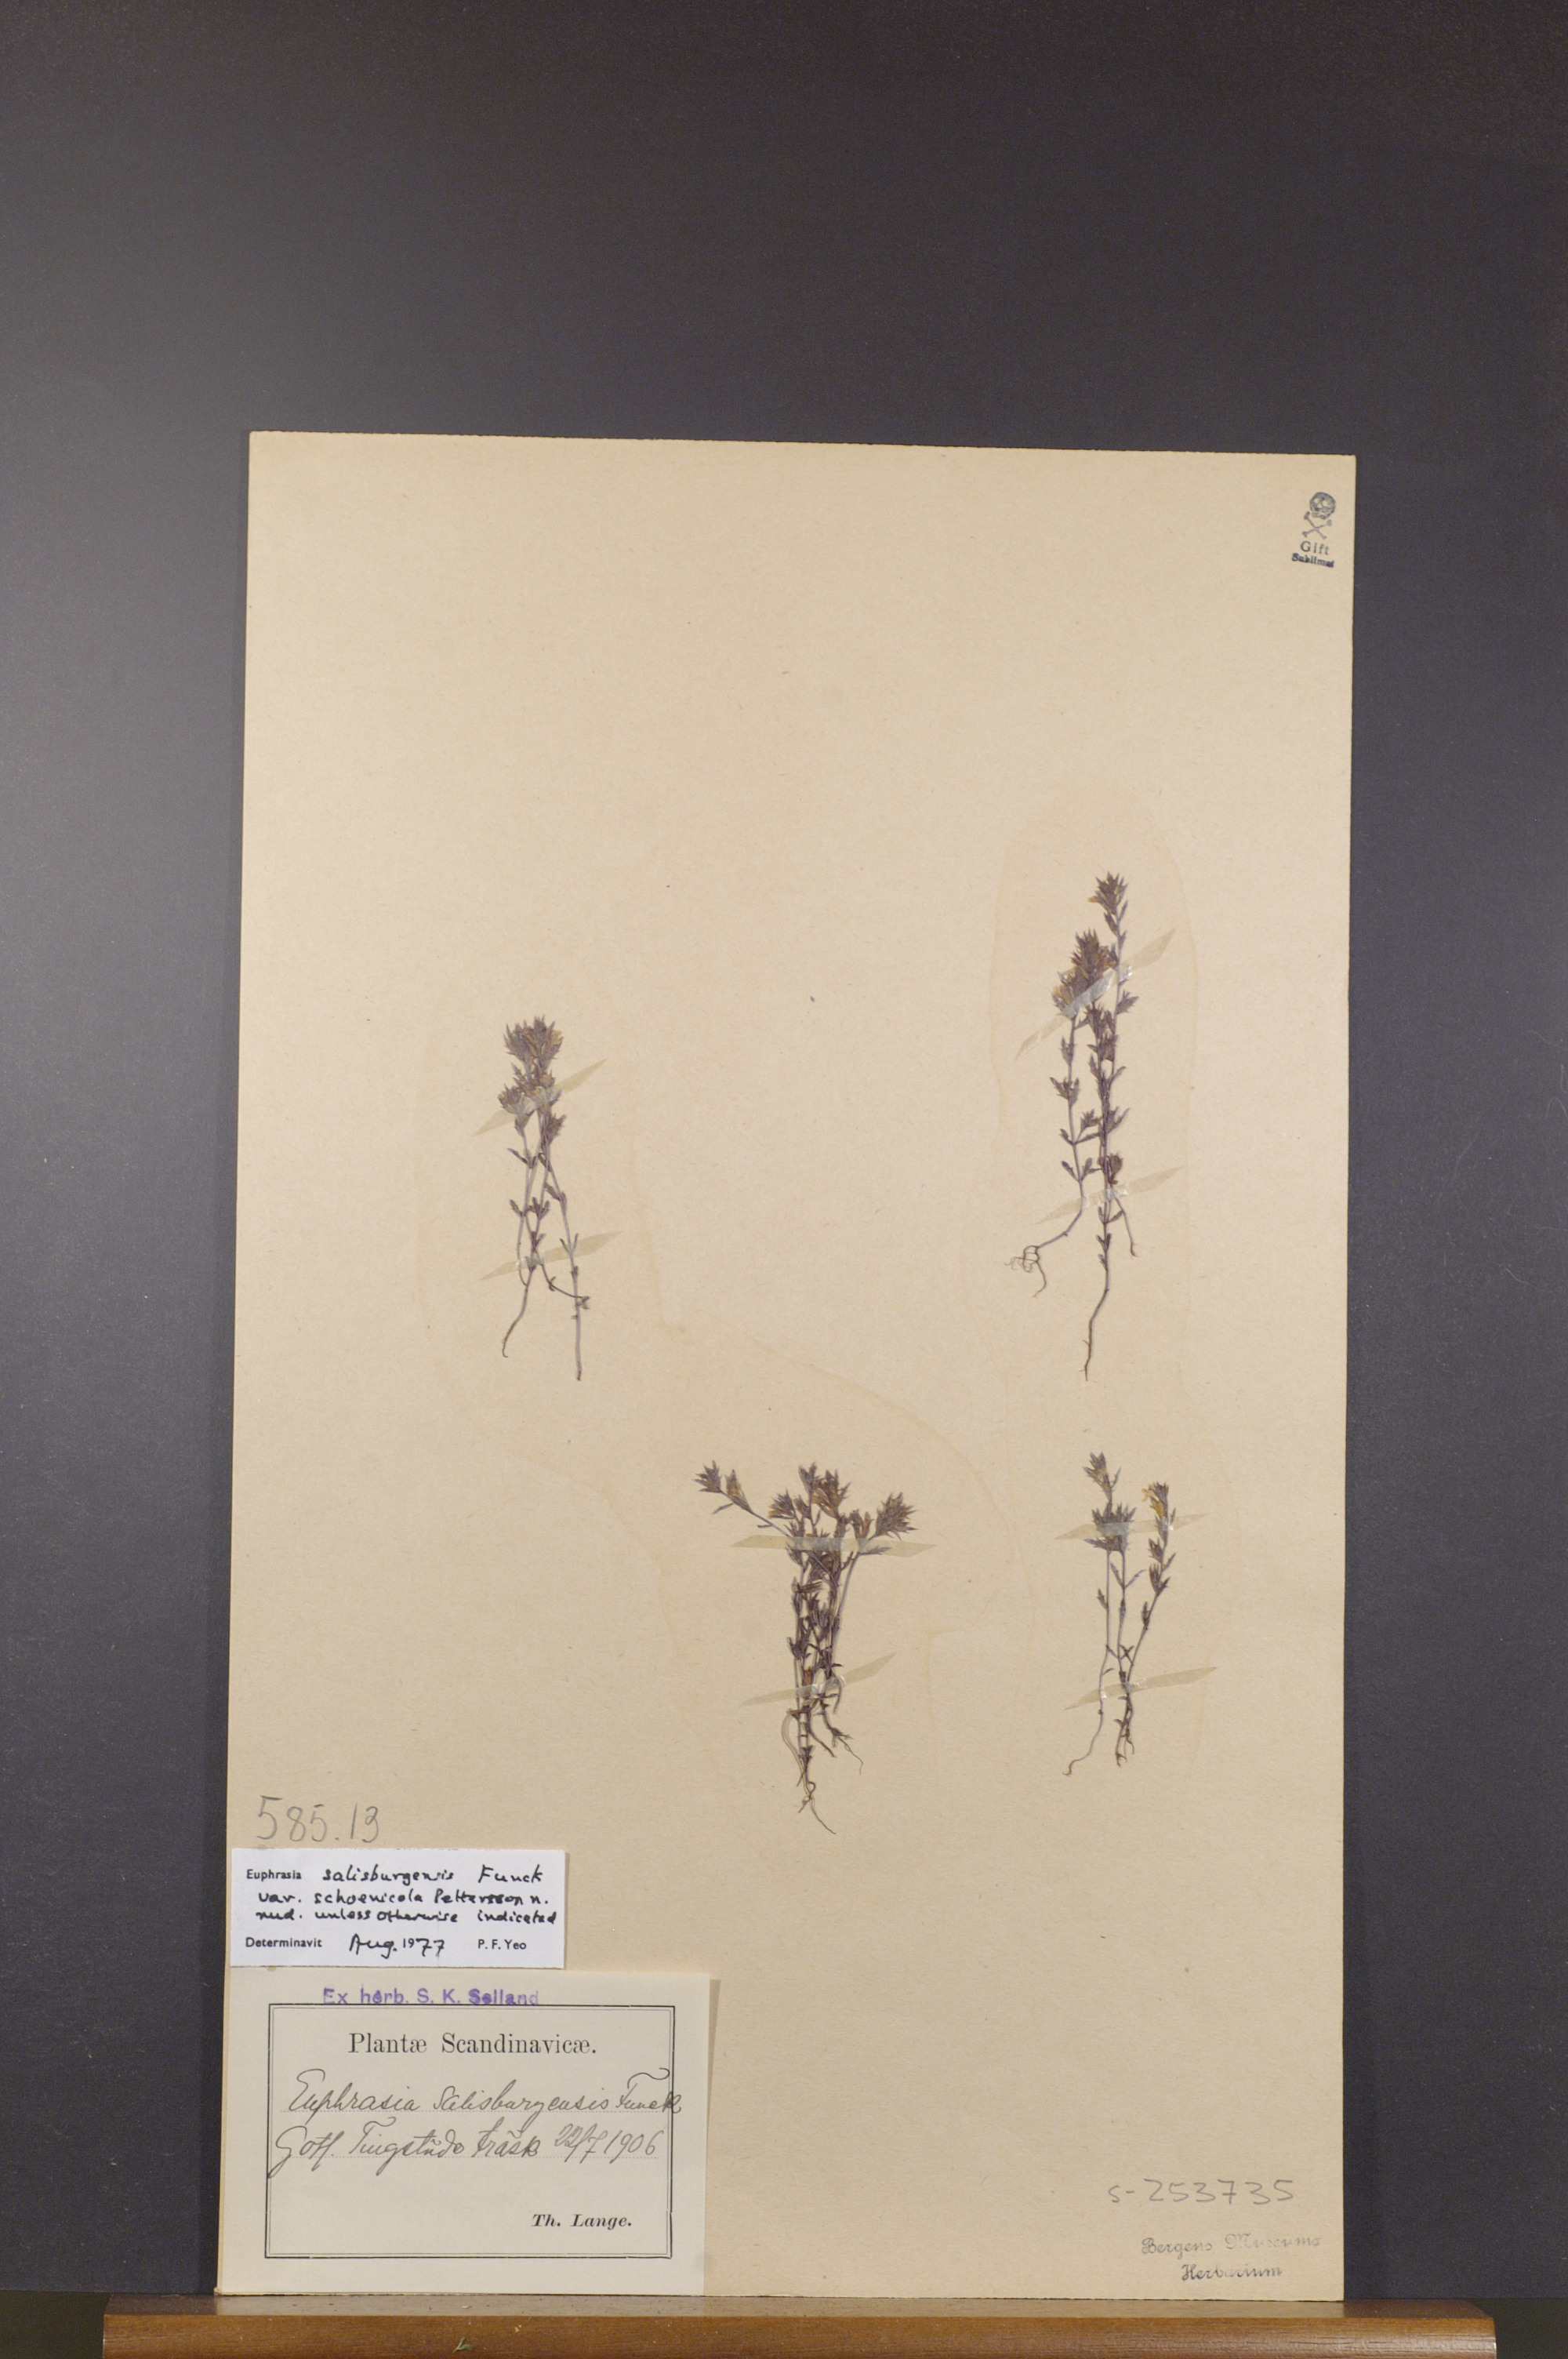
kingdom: Plantae
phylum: Tracheophyta
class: Magnoliopsida
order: Lamiales
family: Orobanchaceae
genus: Euphrasia
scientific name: Euphrasia salisburgensis
